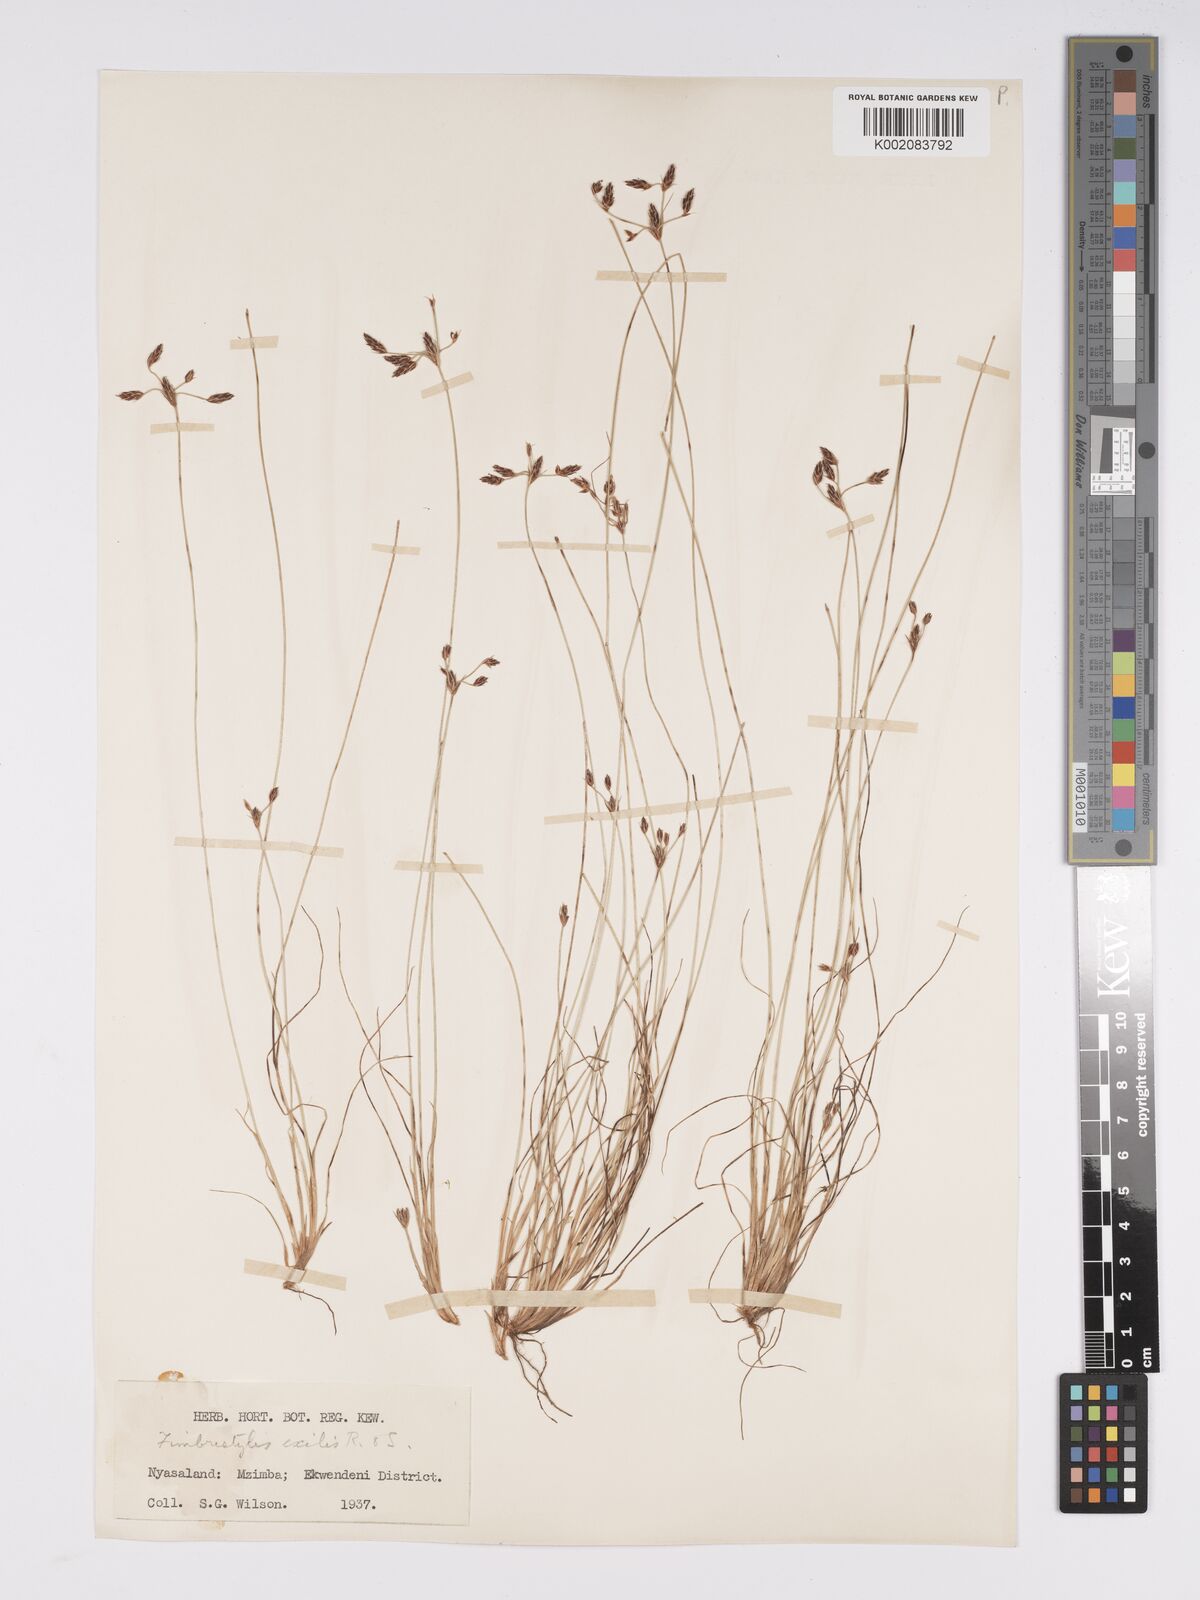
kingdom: Plantae
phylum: Tracheophyta
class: Liliopsida
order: Poales
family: Cyperaceae
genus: Bulbostylis
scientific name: Bulbostylis hispidula
